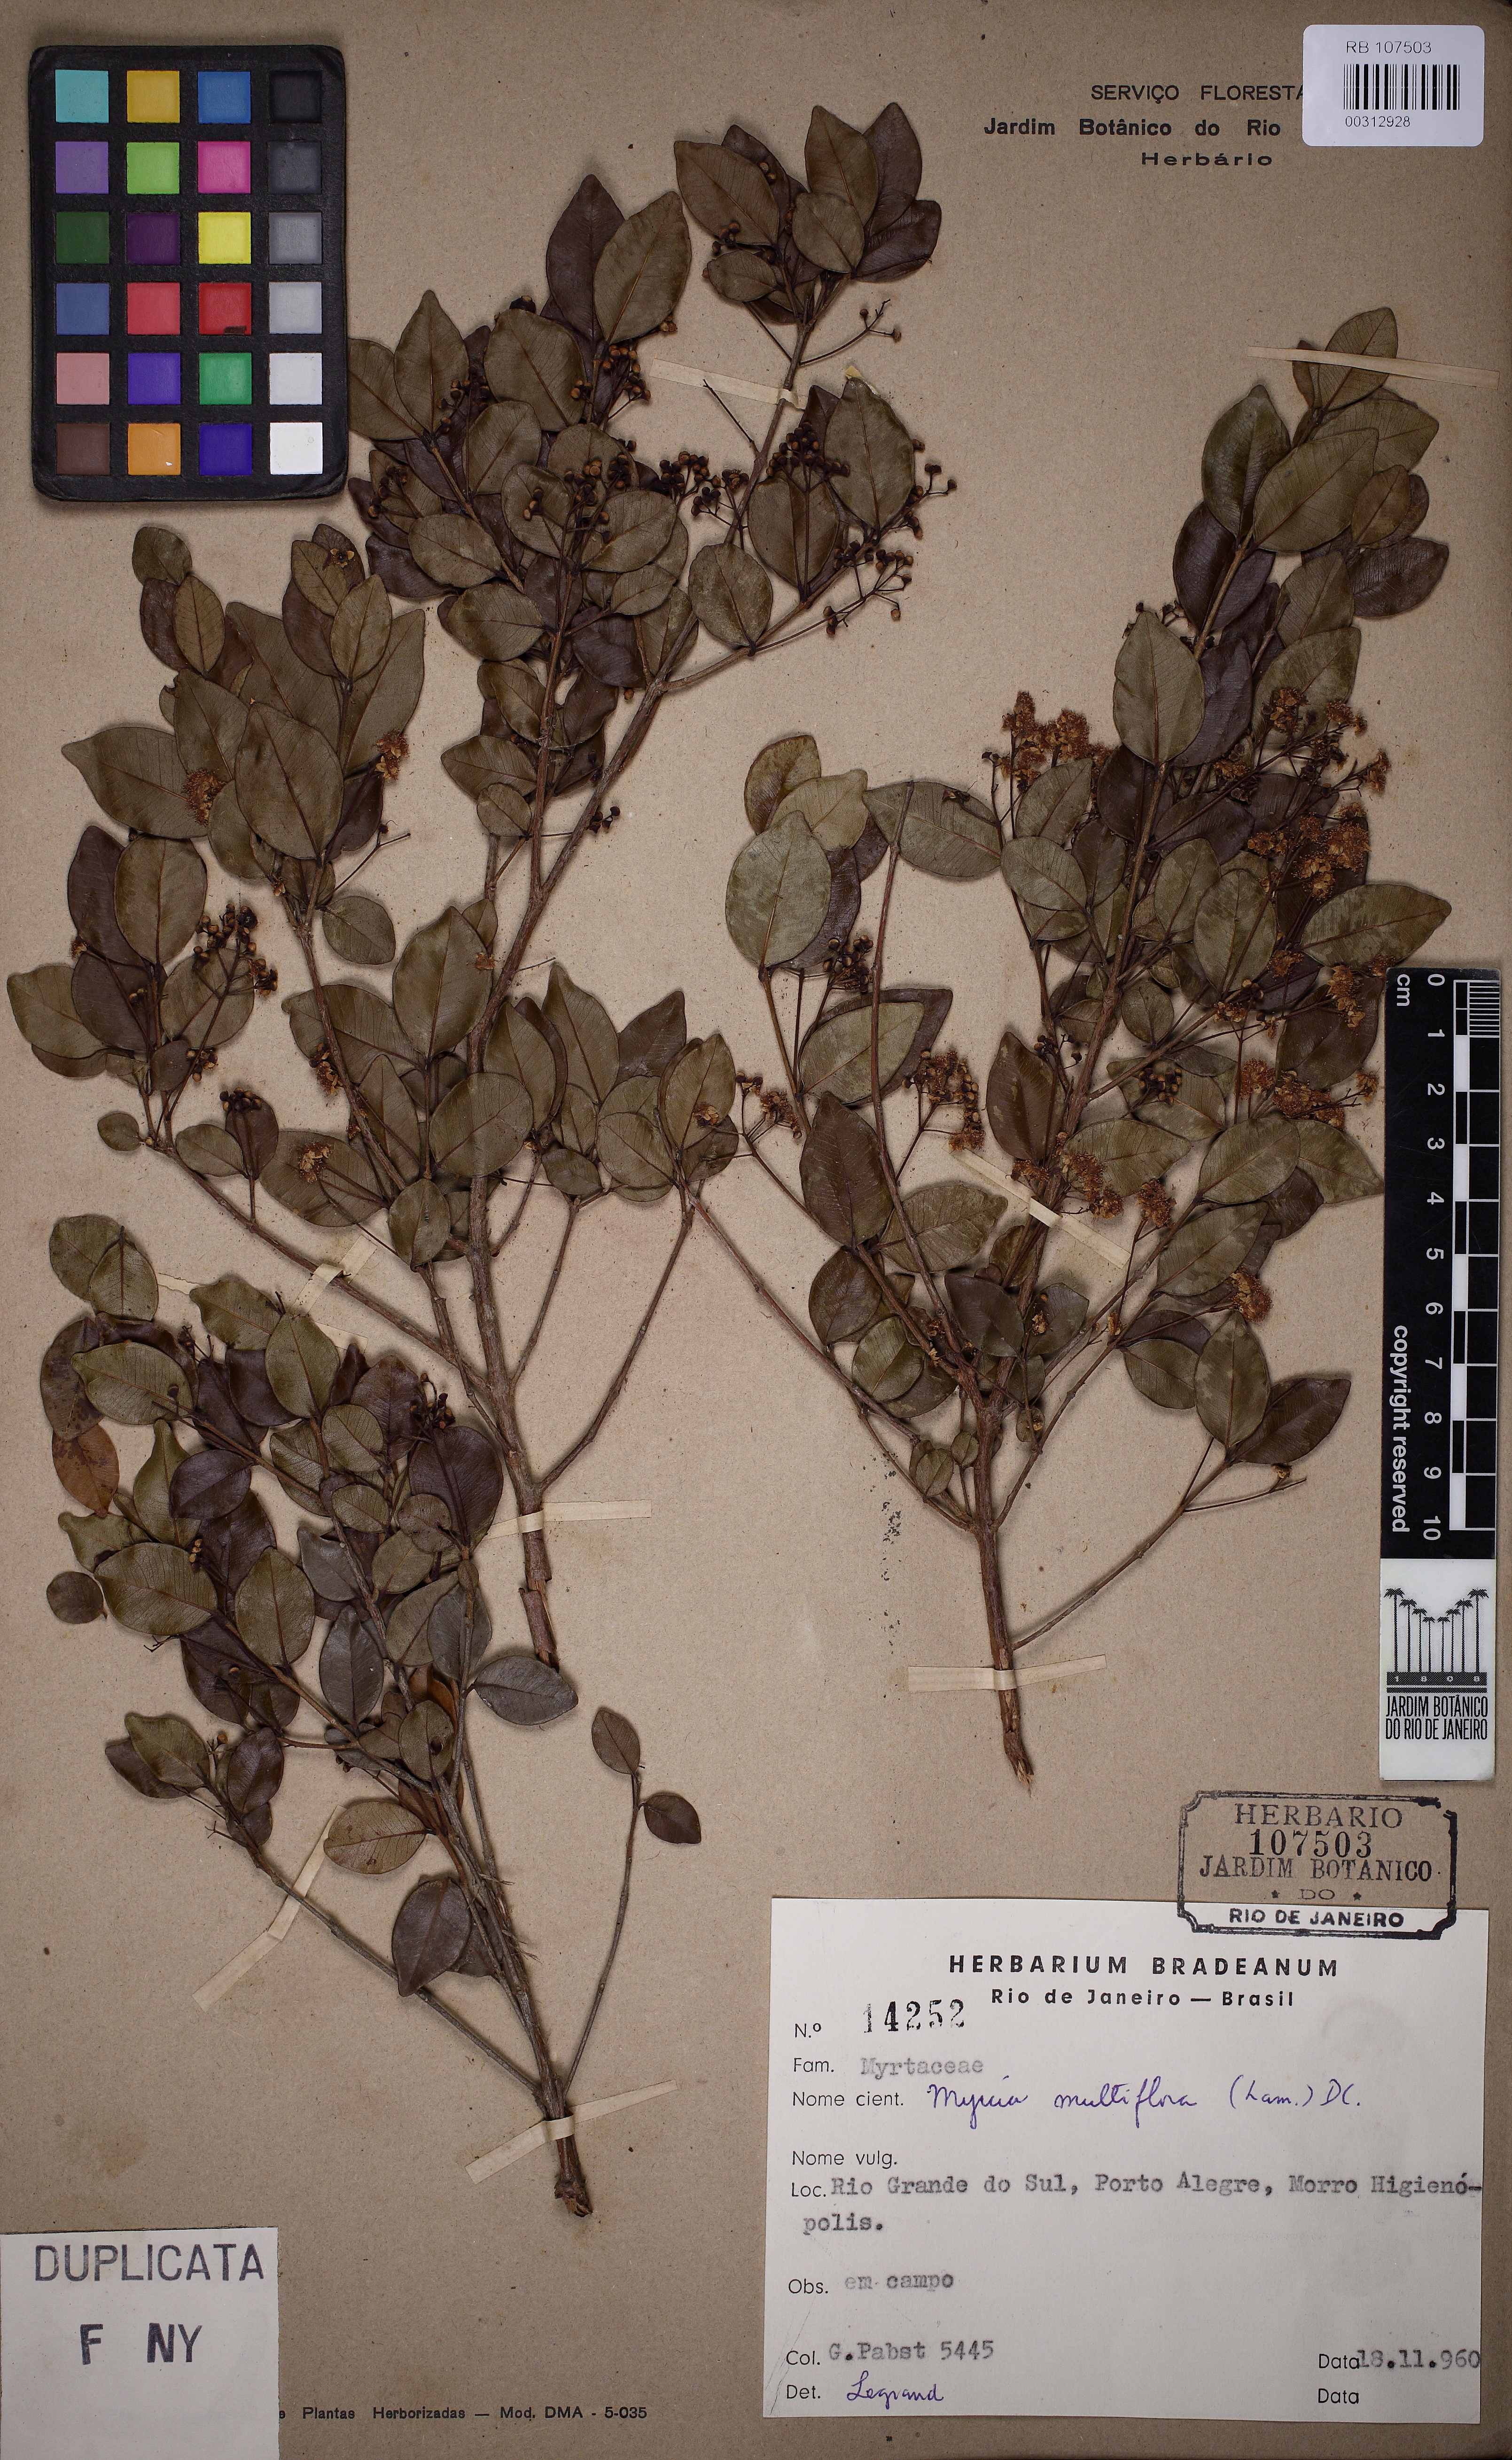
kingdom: Plantae
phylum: Tracheophyta
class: Magnoliopsida
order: Myrtales
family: Myrtaceae
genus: Myrcia
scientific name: Myrcia multiflora
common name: Pedra hume
